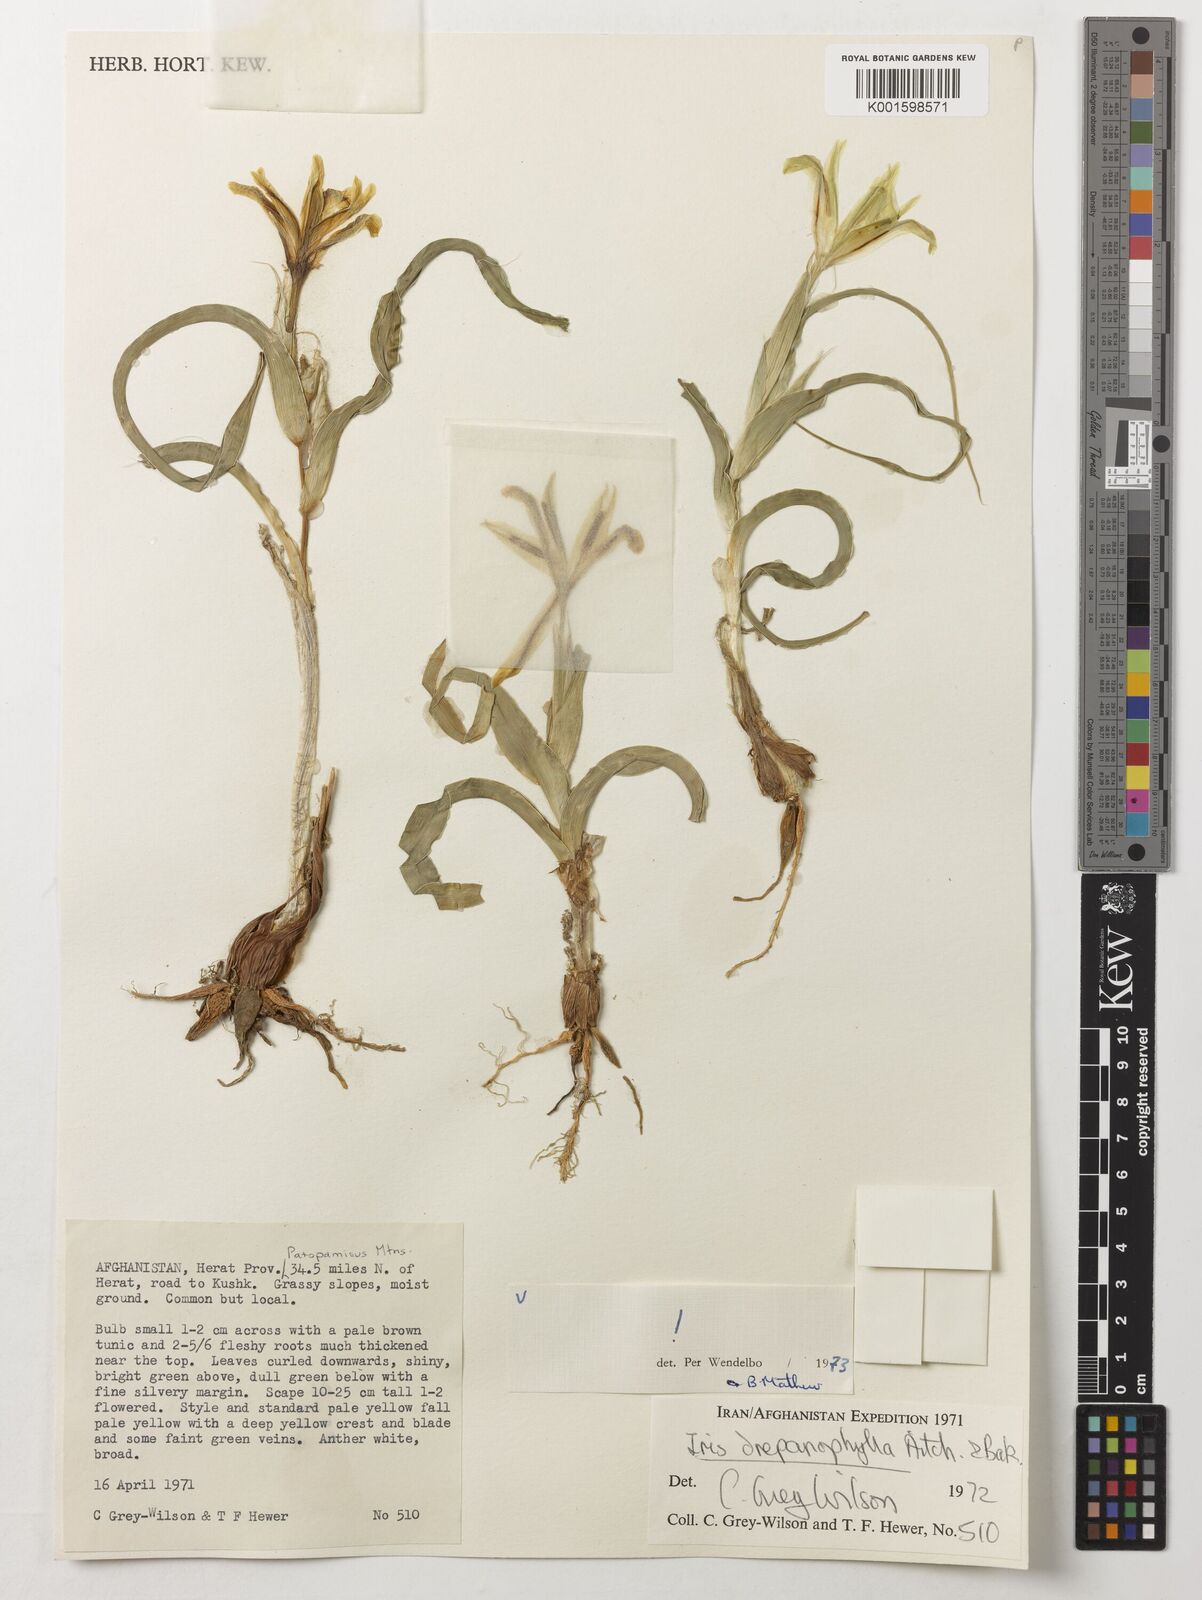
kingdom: Plantae
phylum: Tracheophyta
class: Liliopsida
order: Asparagales
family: Iridaceae
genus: Iris
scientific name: Iris drepanophylla
